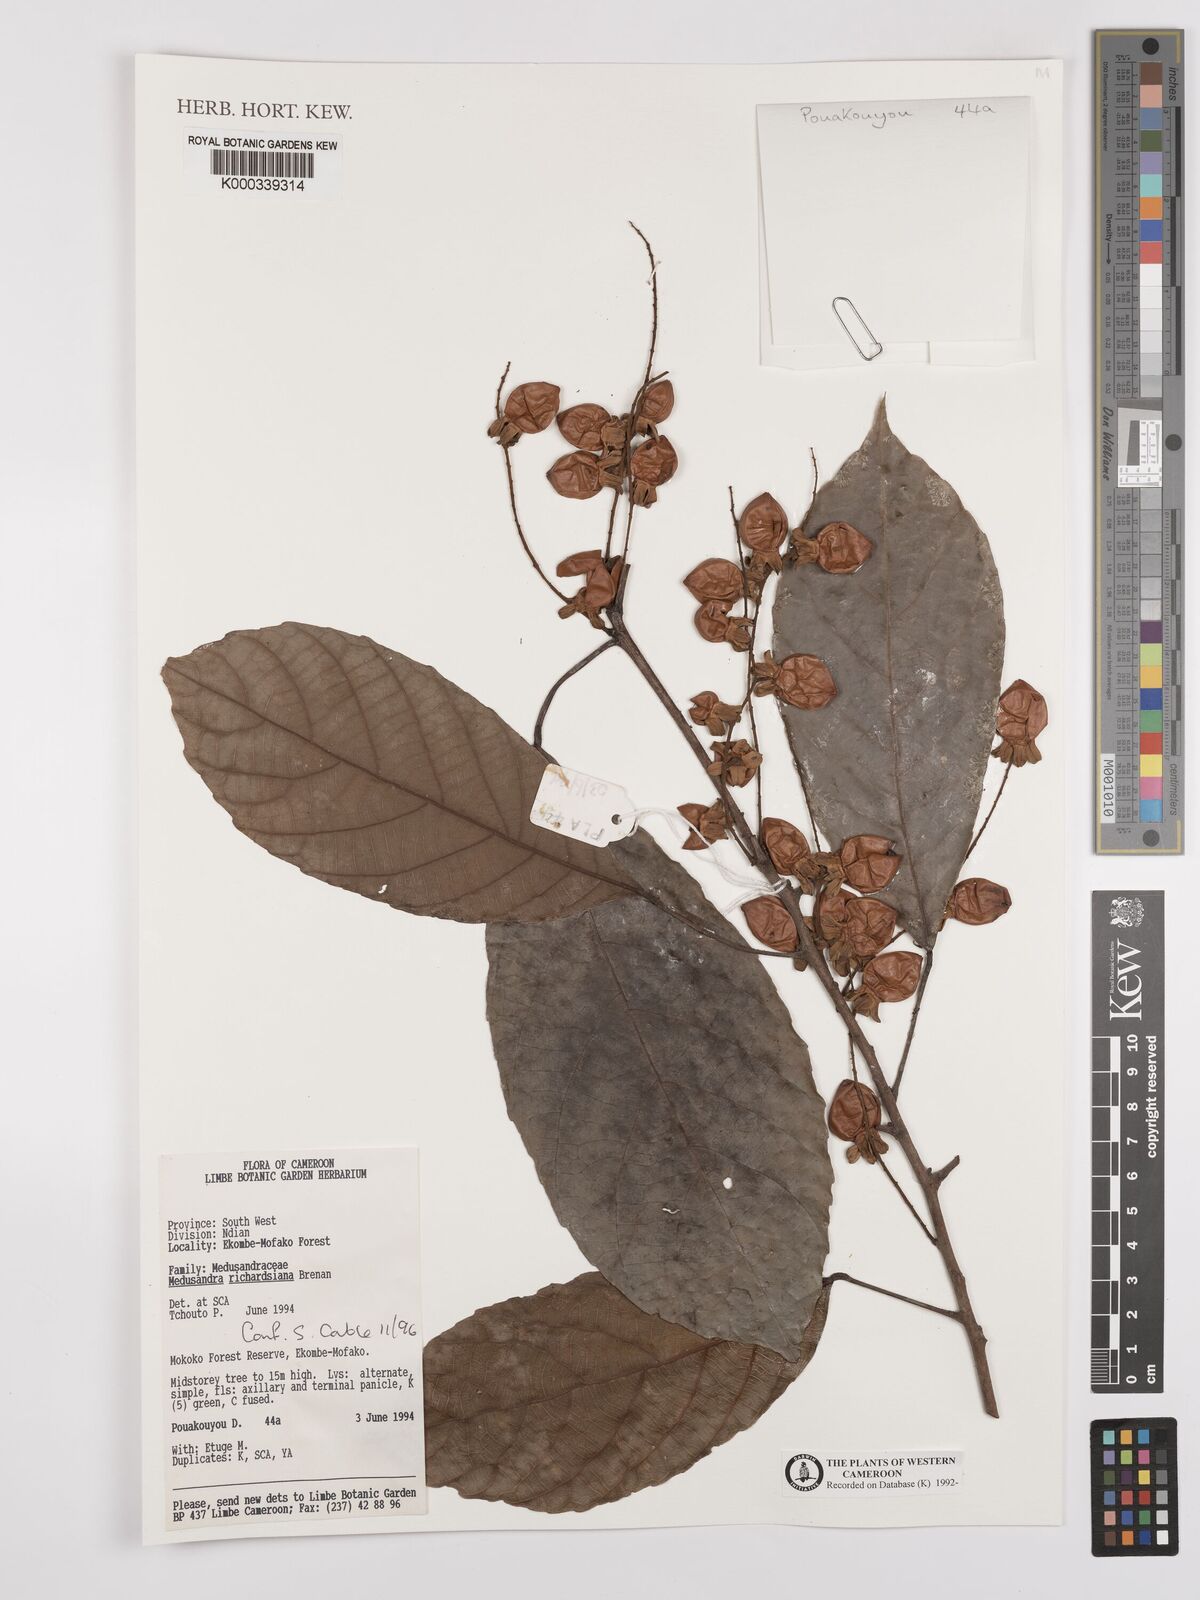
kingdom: Plantae
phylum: Tracheophyta
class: Magnoliopsida
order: Saxifragales
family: Peridiscaceae
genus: Medusandra
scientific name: Medusandra richardsiana
